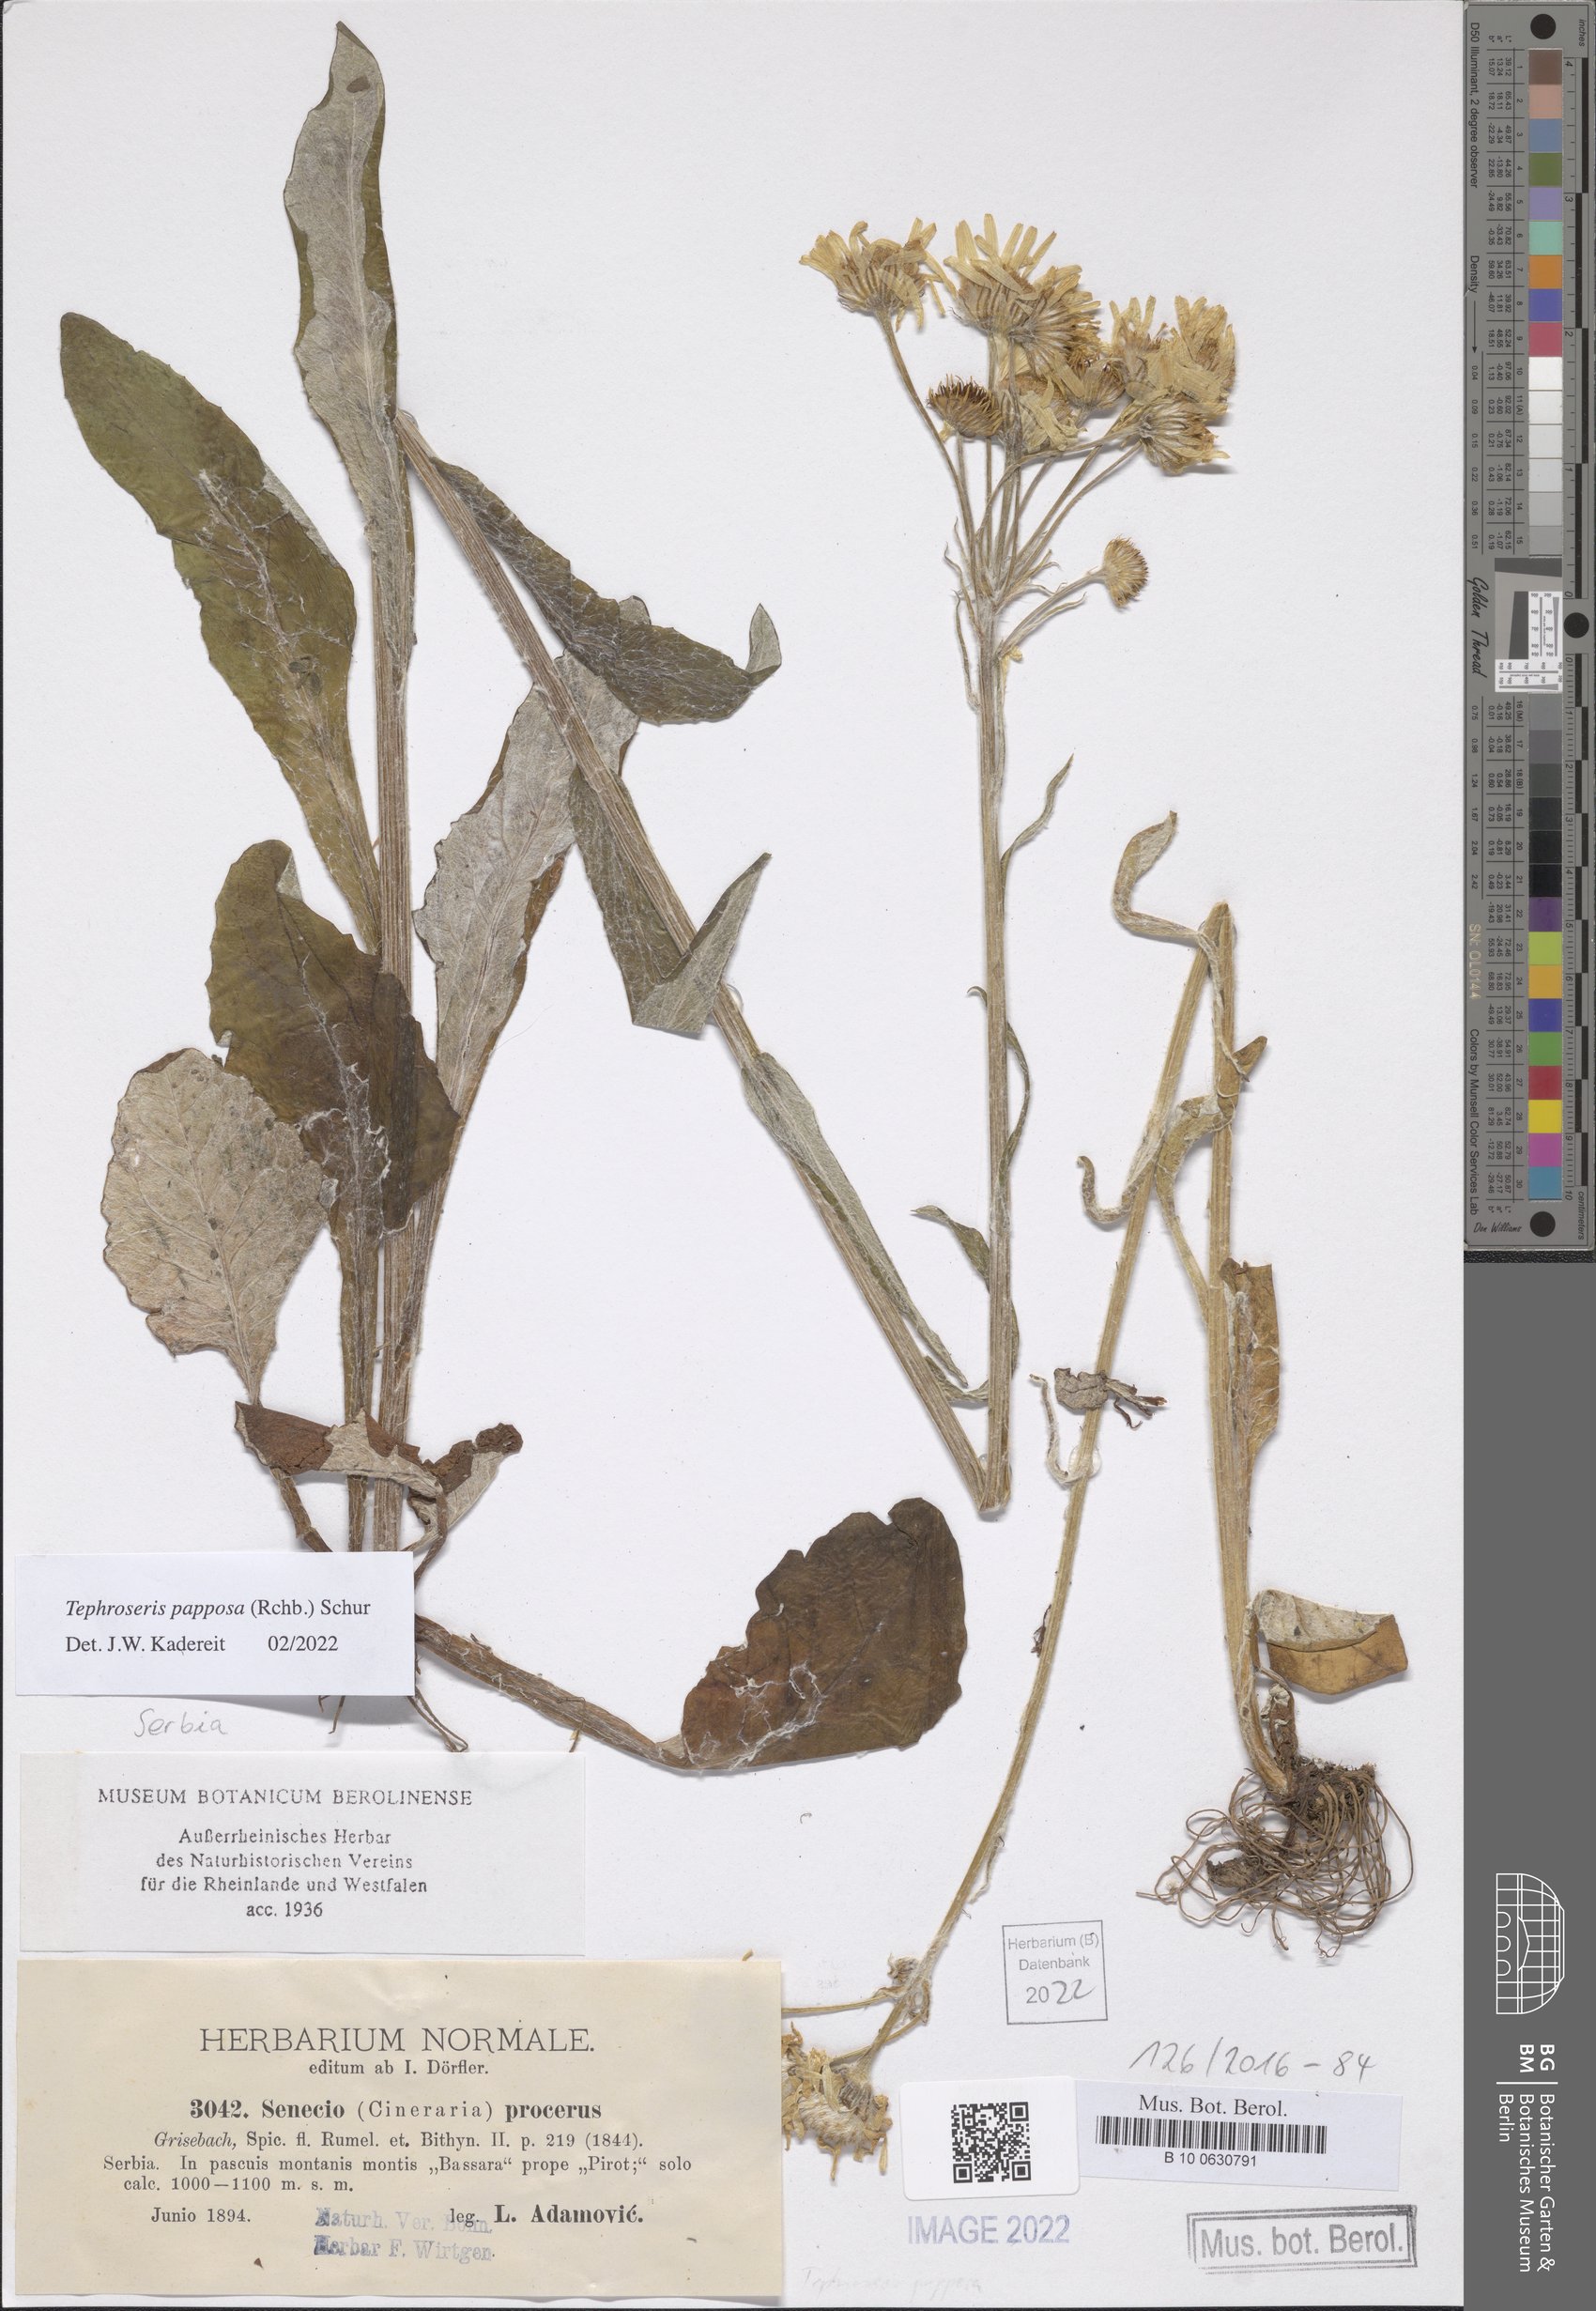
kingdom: Plantae
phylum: Tracheophyta
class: Magnoliopsida
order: Asterales
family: Asteraceae
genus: Tephroseris
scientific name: Tephroseris papposa
